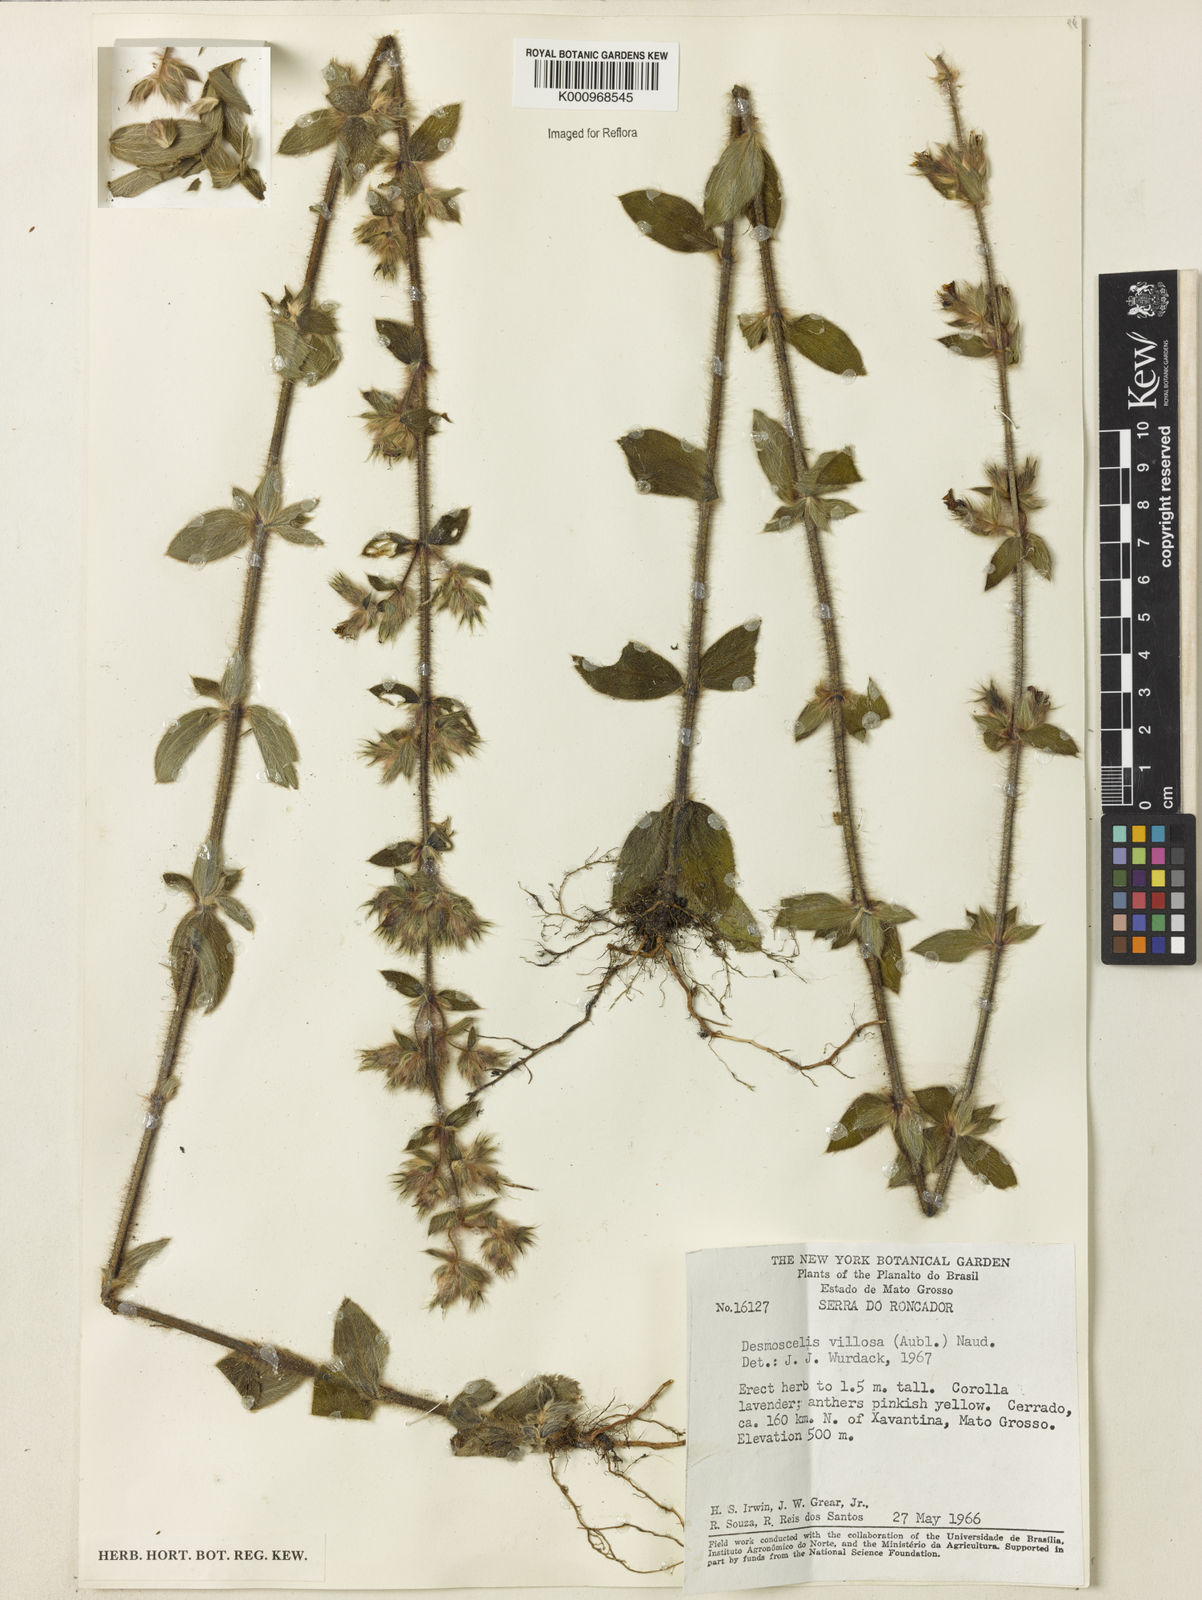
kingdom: Plantae
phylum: Tracheophyta
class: Magnoliopsida
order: Myrtales
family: Melastomataceae
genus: Desmoscelis
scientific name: Desmoscelis villosa
